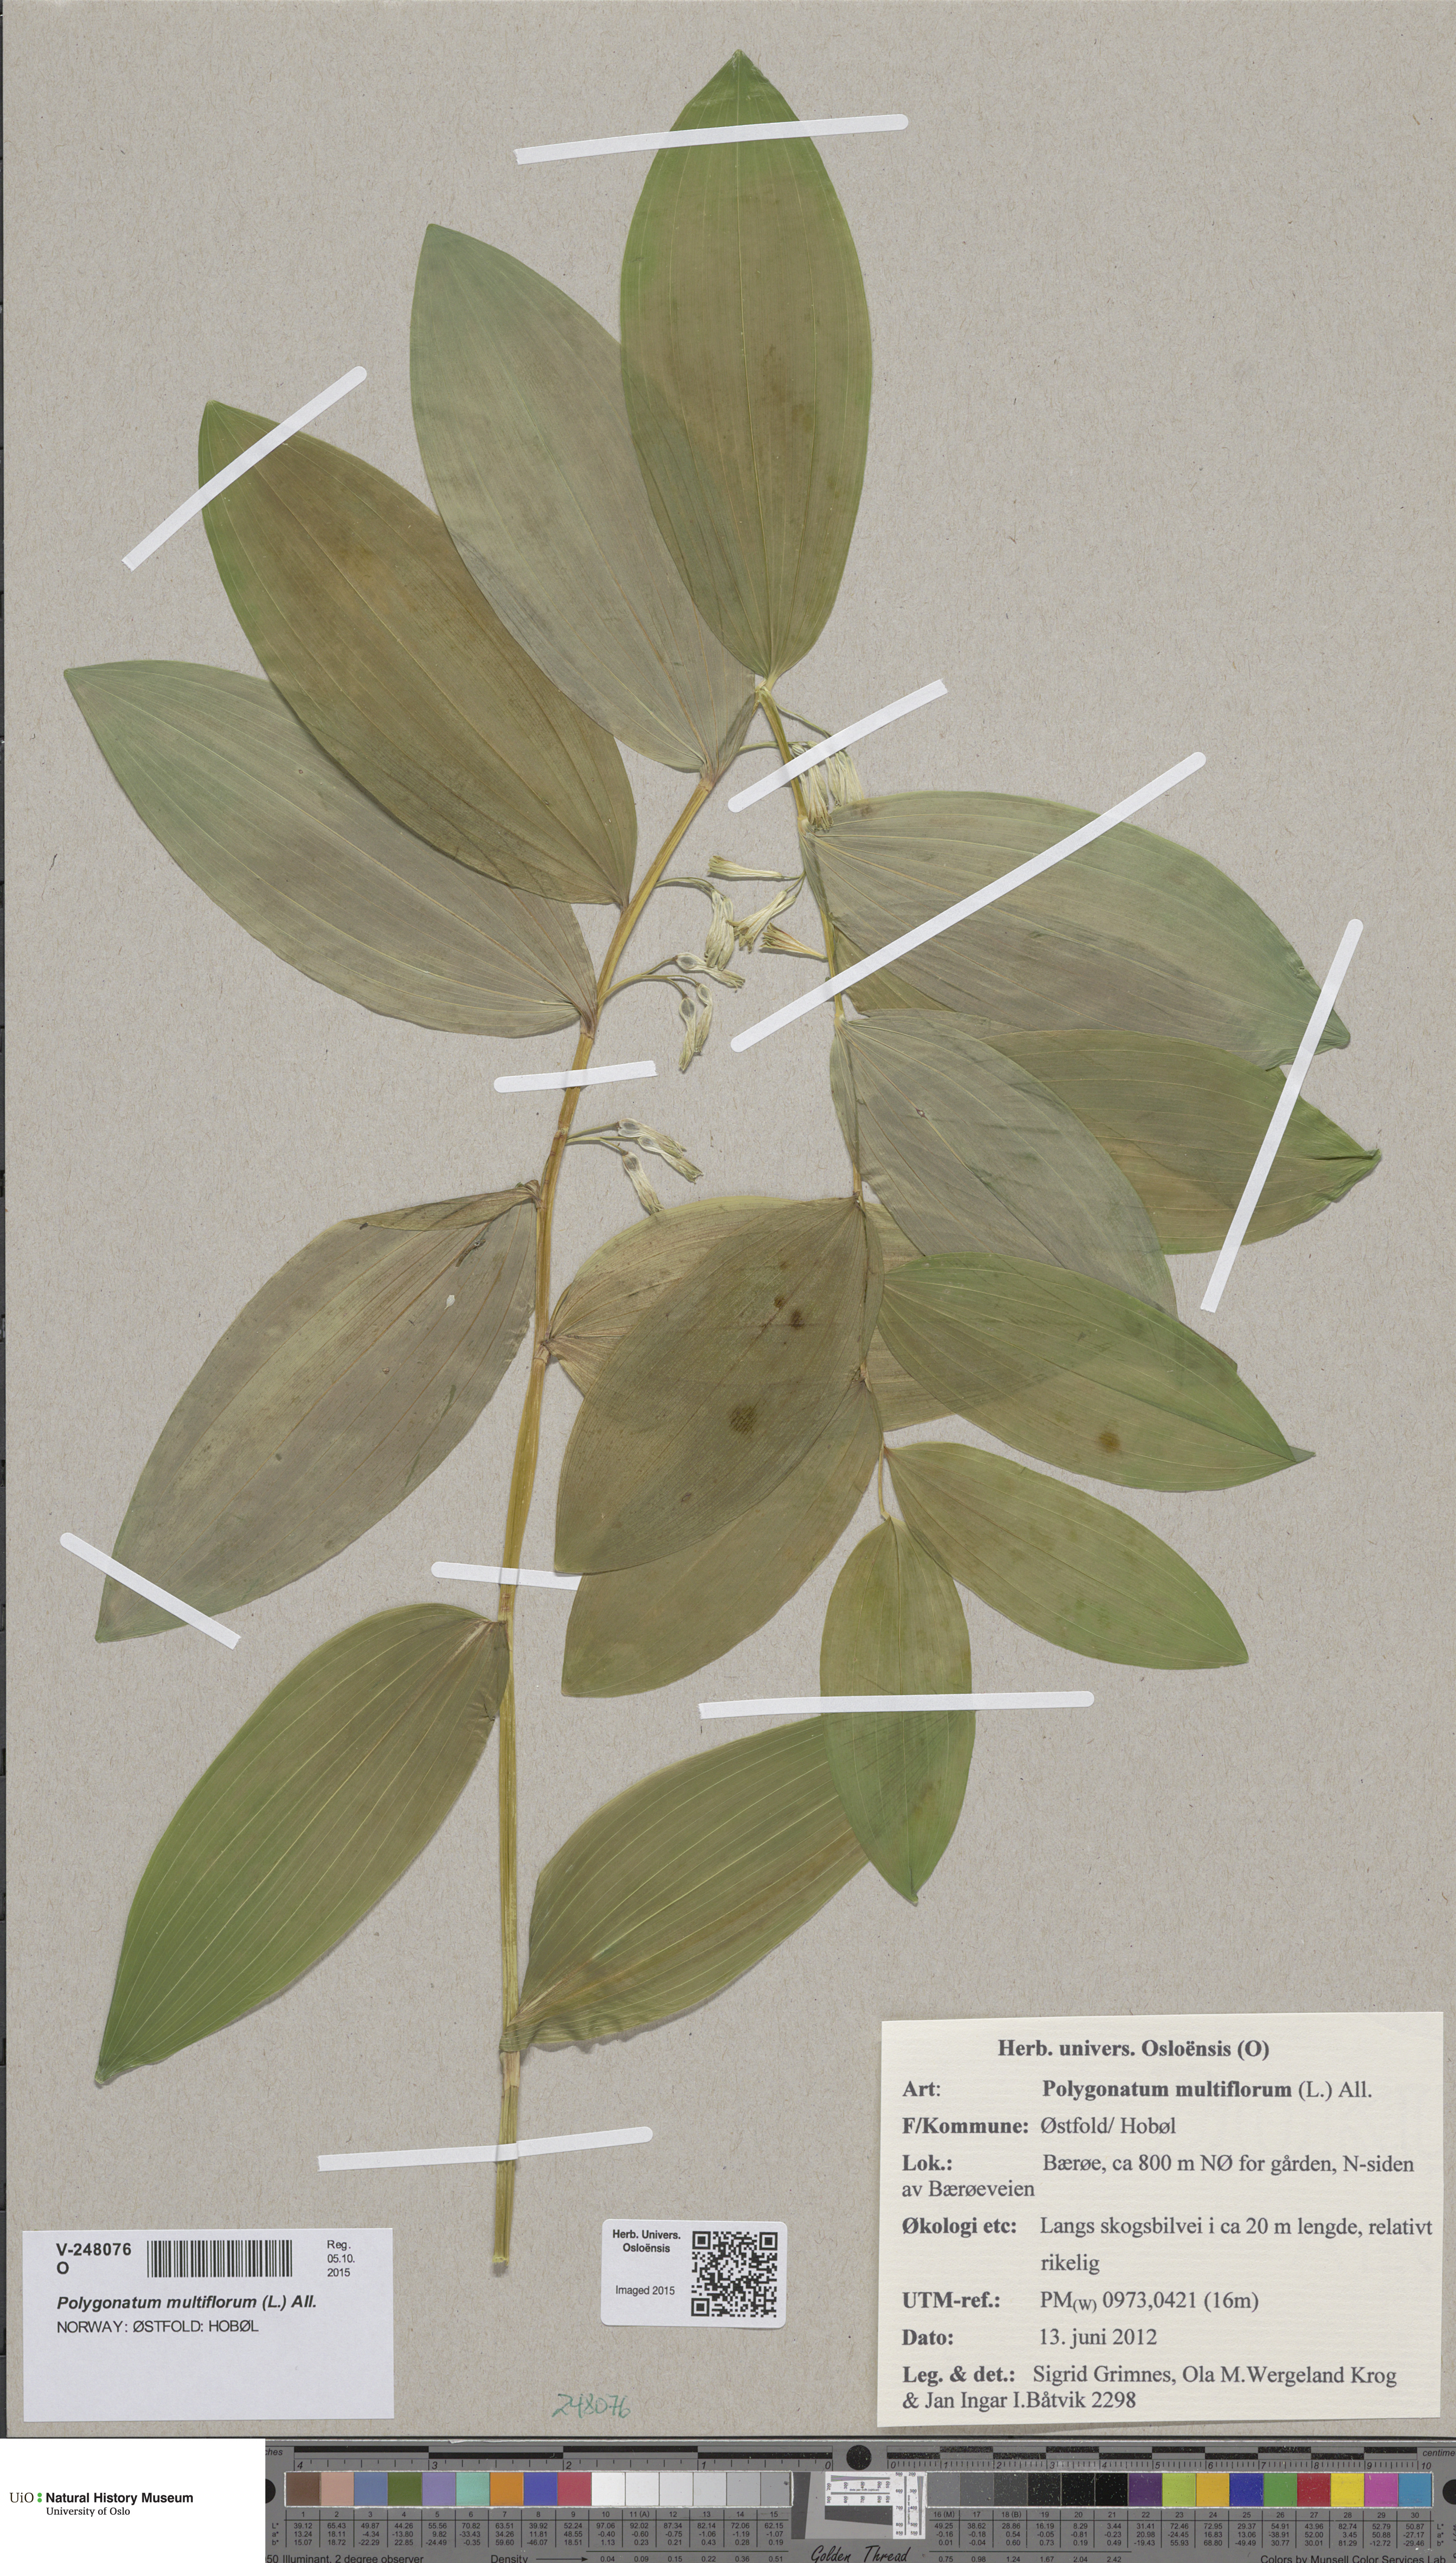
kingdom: Plantae
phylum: Tracheophyta
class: Liliopsida
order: Asparagales
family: Asparagaceae
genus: Polygonatum
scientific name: Polygonatum multiflorum
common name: Solomon's-seal
